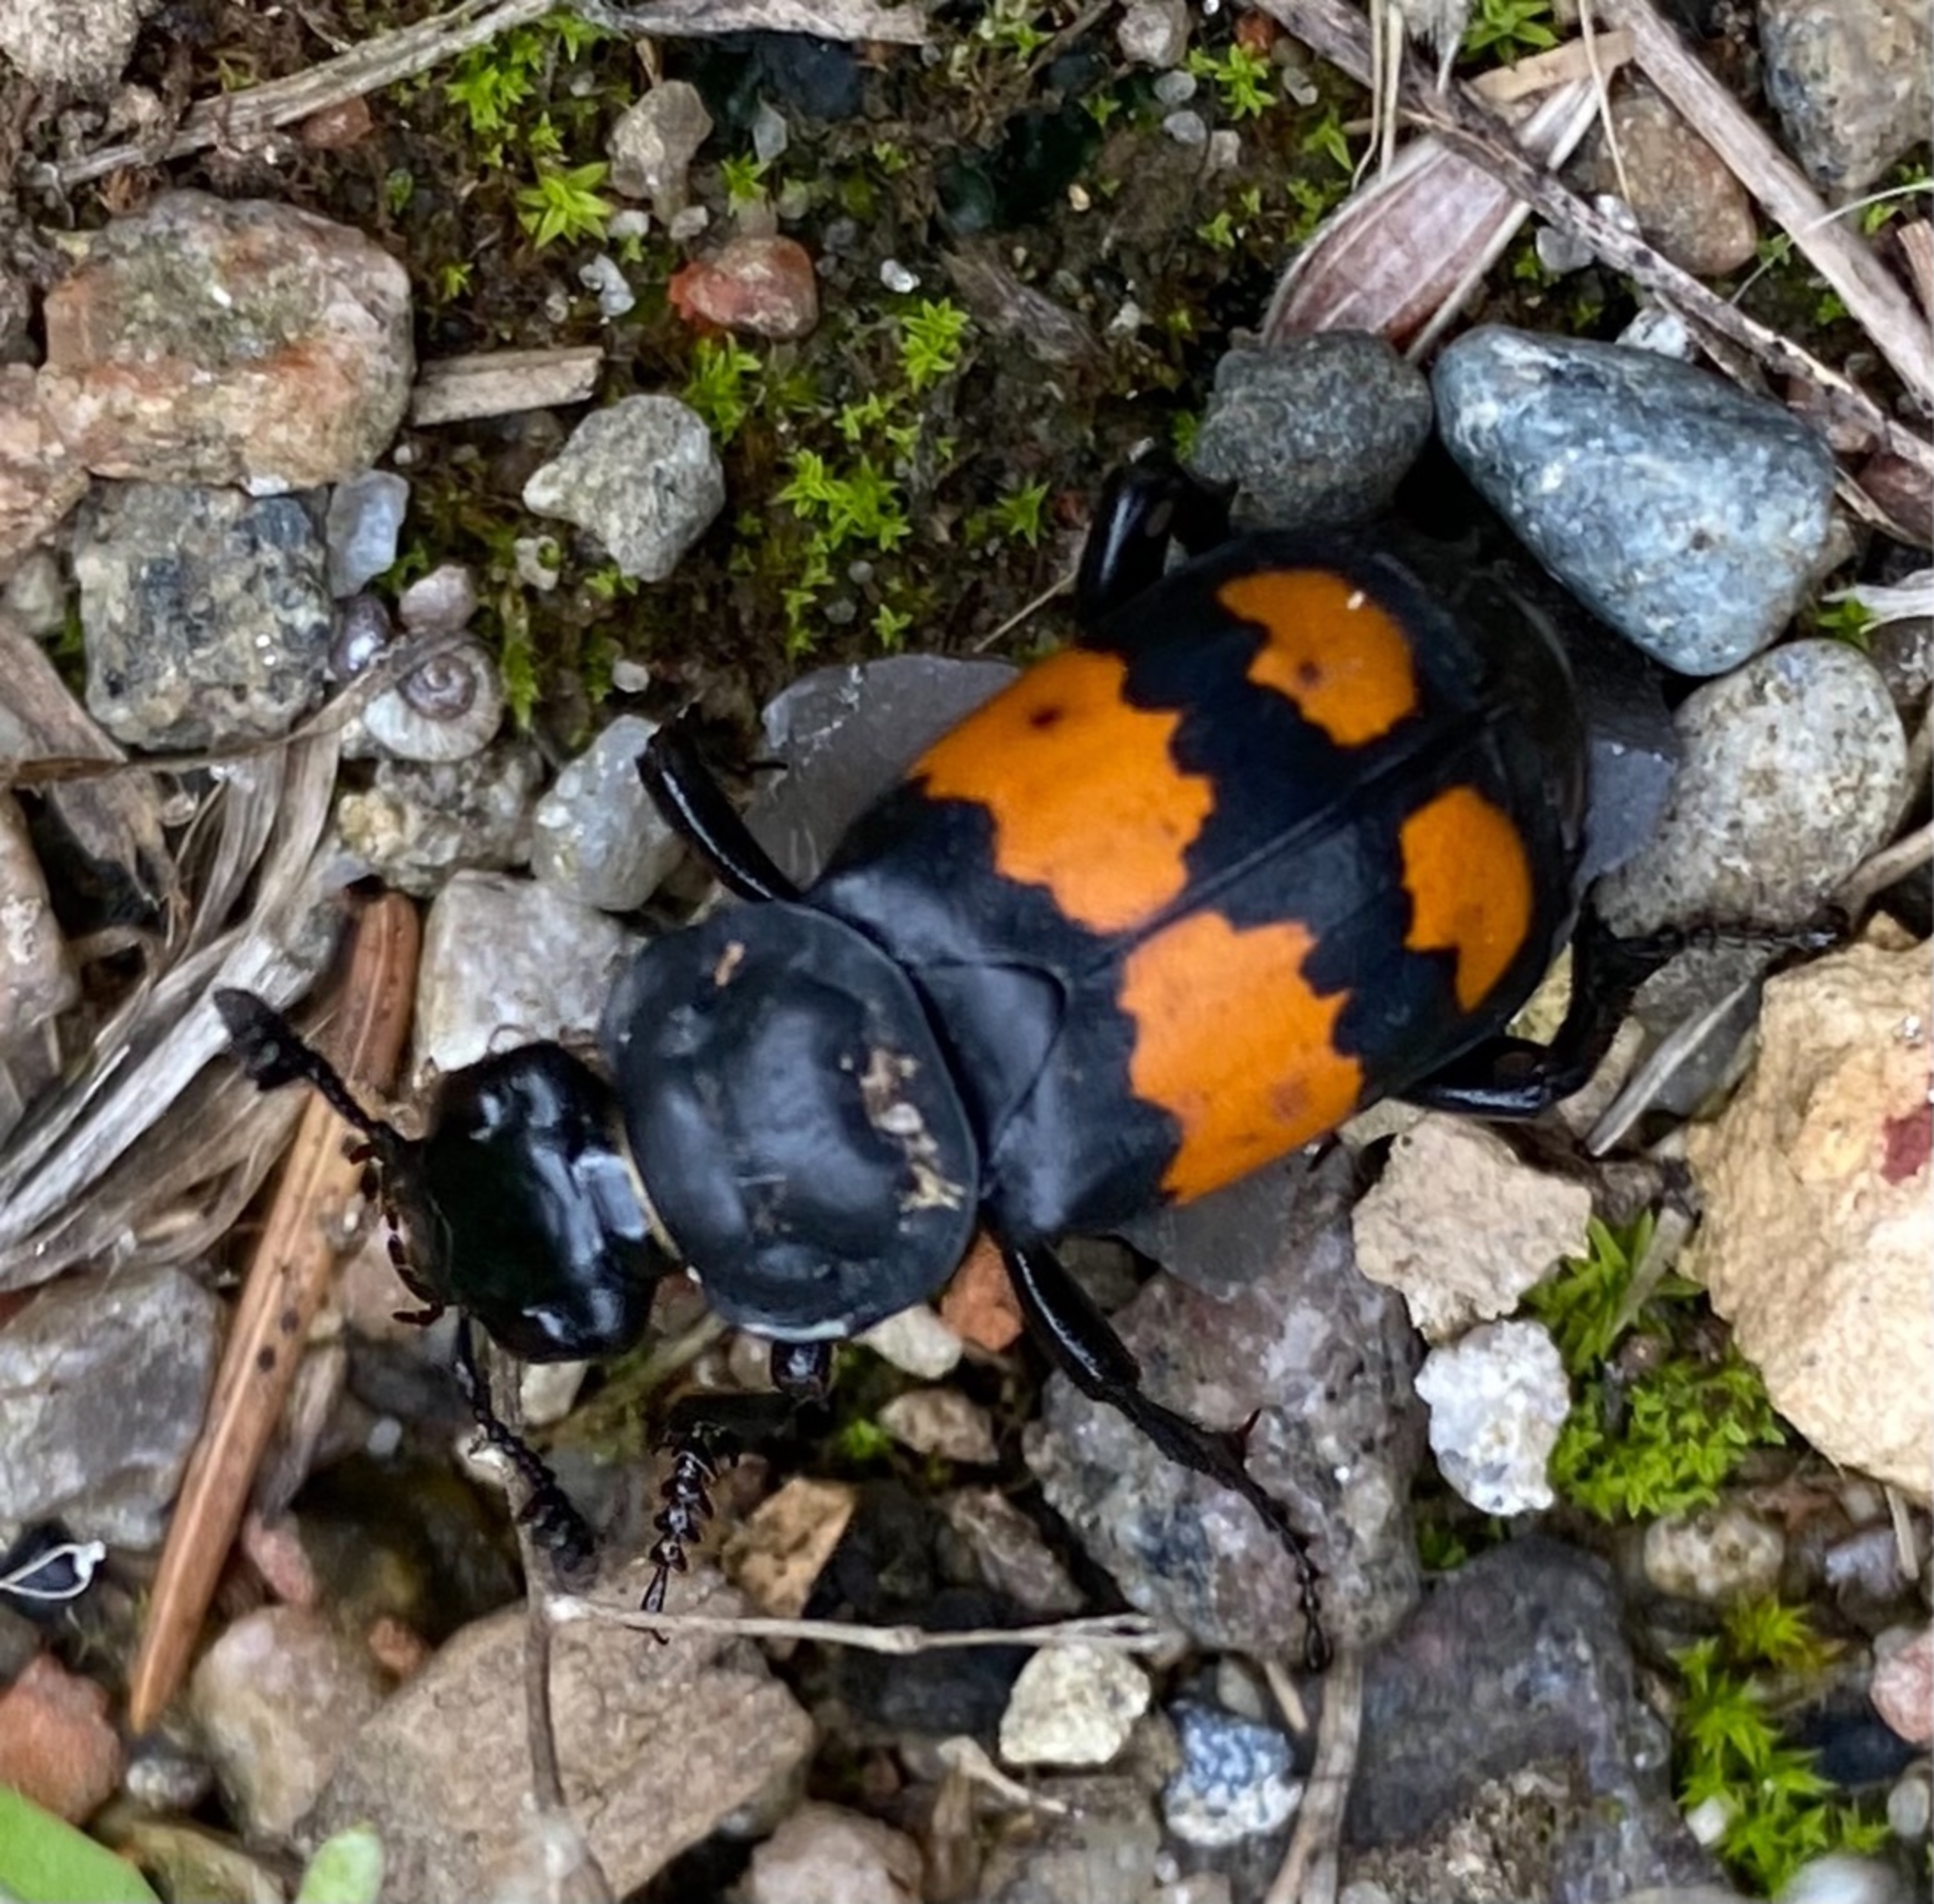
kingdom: Animalia
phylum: Arthropoda
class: Insecta
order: Coleoptera
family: Staphylinidae
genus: Nicrophorus
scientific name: Nicrophorus vespilloides
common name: Sortkøllet ådselgraver
